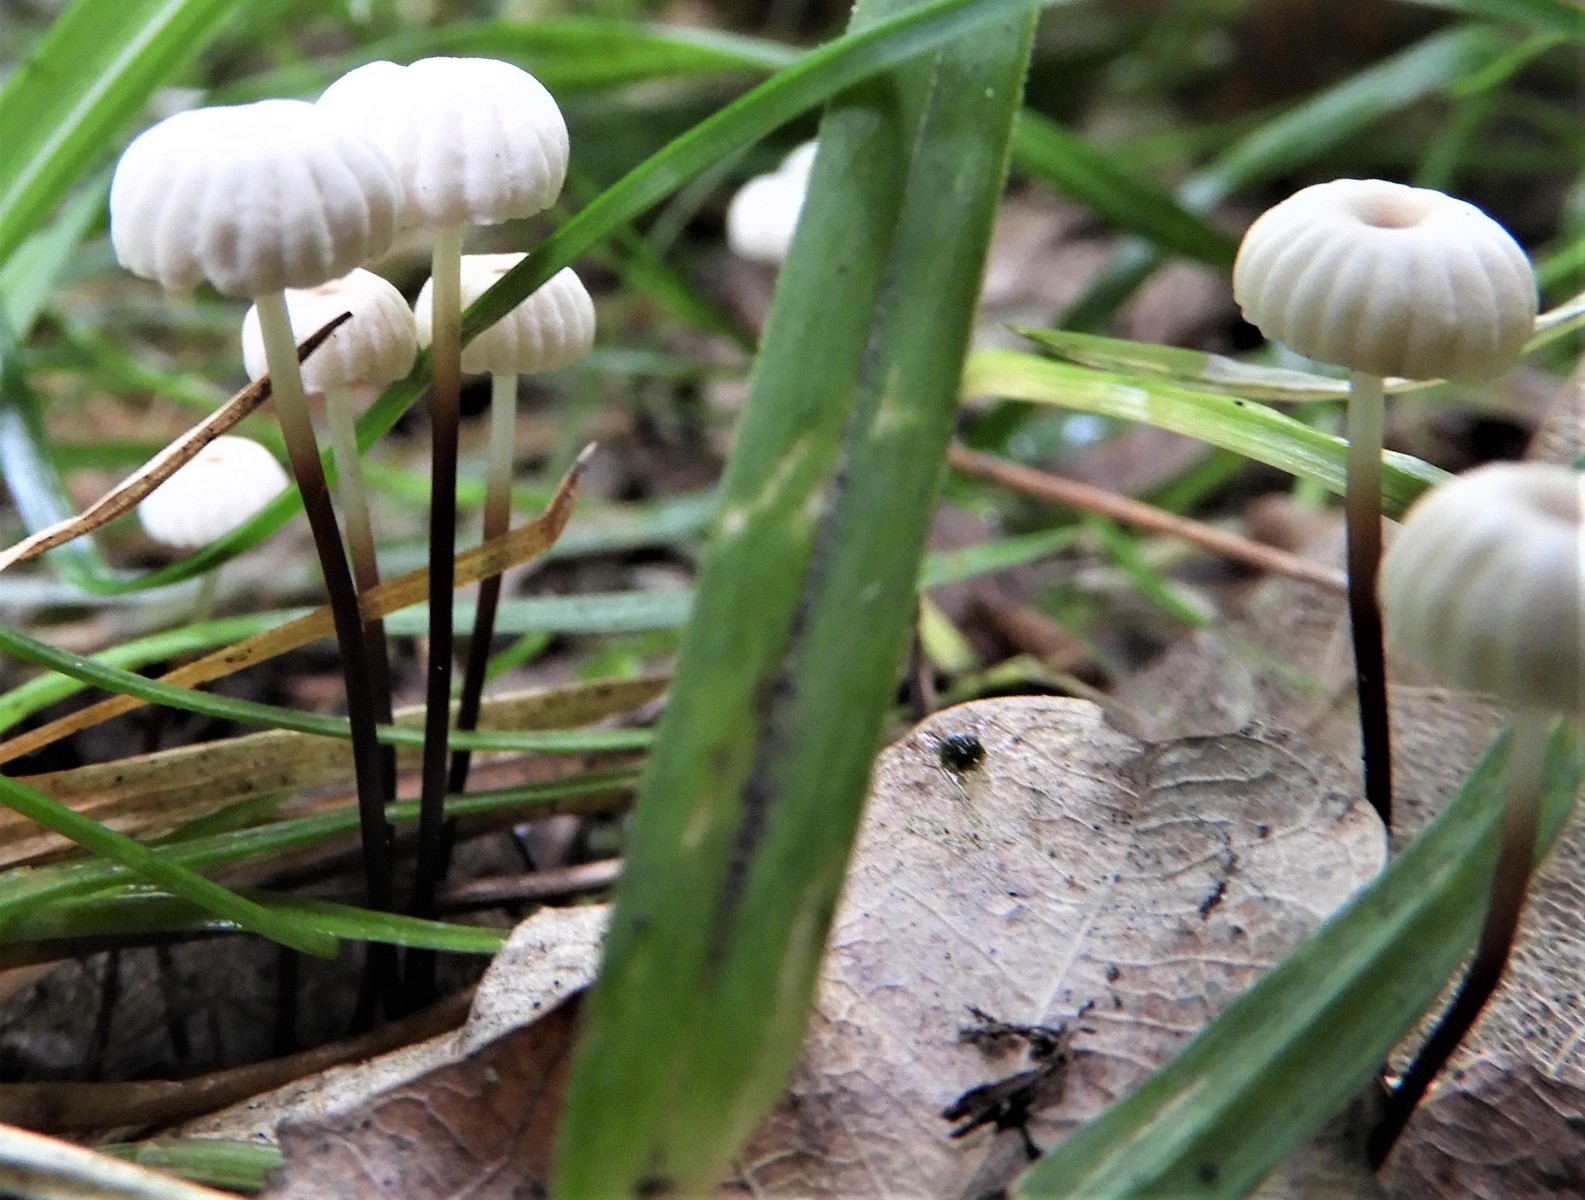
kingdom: Fungi
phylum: Basidiomycota
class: Agaricomycetes
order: Agaricales
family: Marasmiaceae
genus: Marasmius
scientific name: Marasmius rotula
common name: hjul-bruskhat
